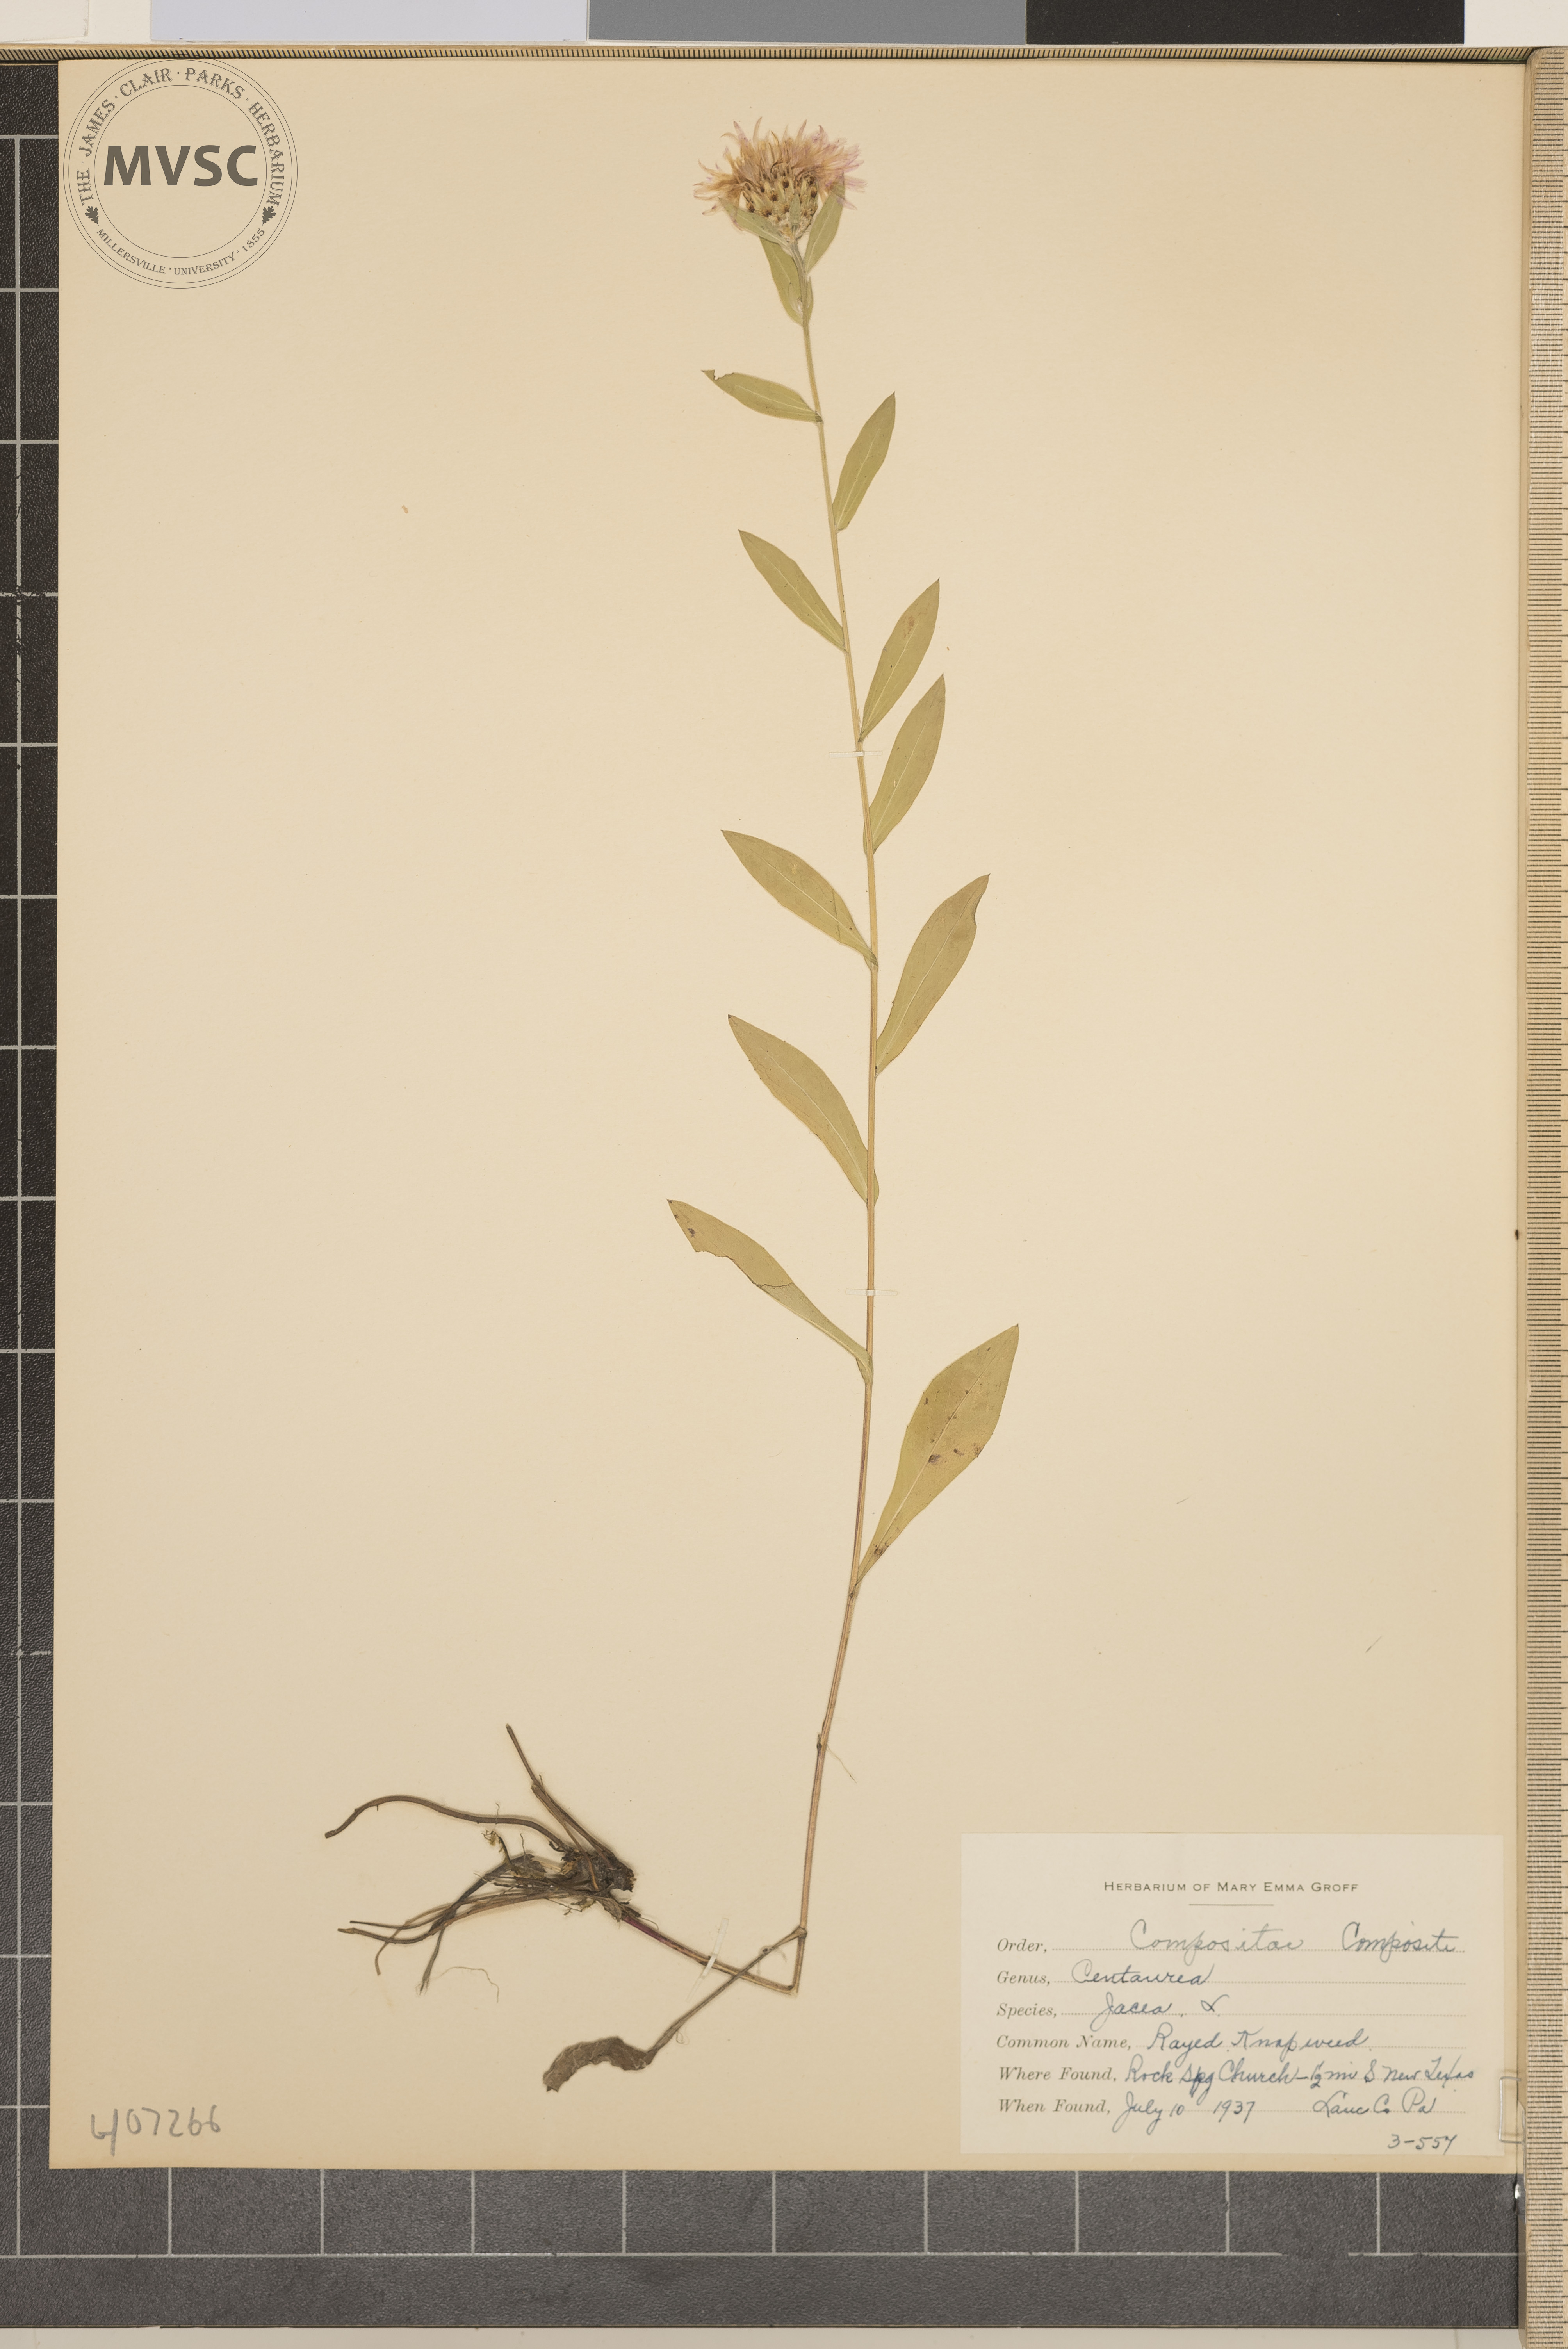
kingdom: Plantae
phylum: Tracheophyta
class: Magnoliopsida
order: Asterales
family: Asteraceae
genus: Centaurea
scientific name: Centaurea jacea
